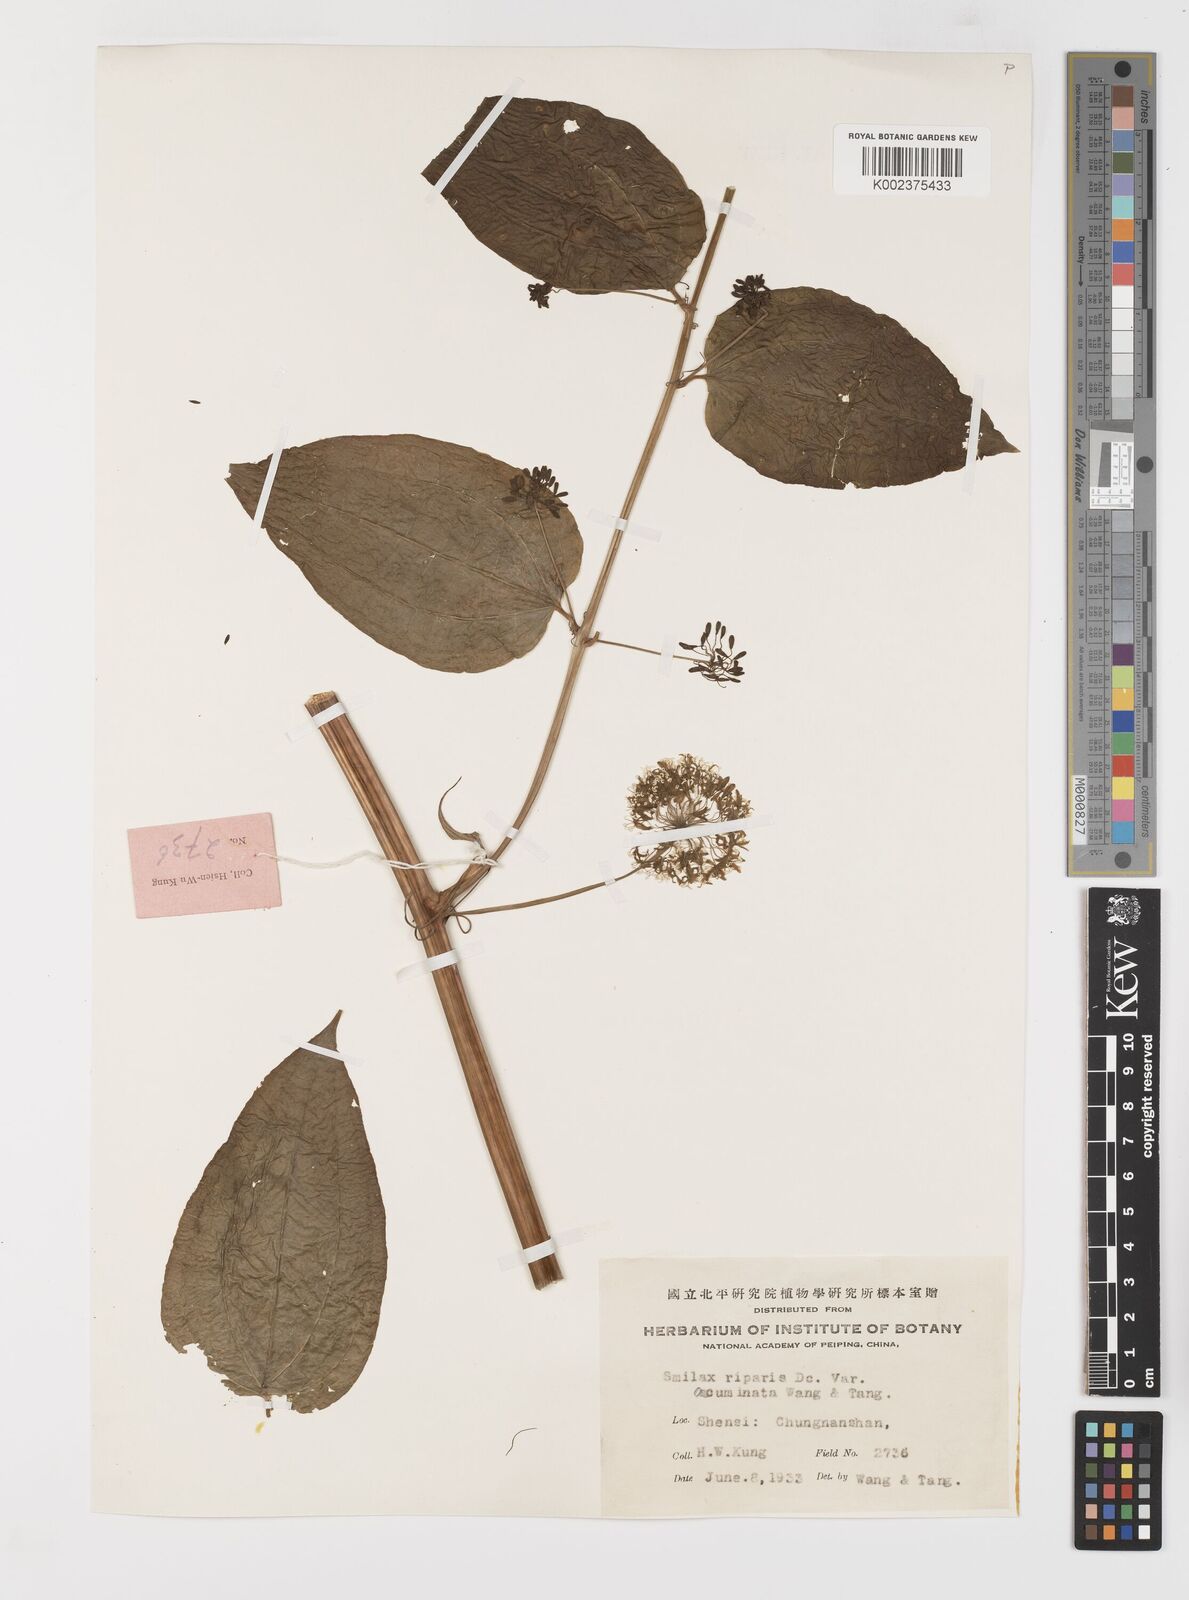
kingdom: Plantae
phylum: Tracheophyta
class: Liliopsida
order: Liliales
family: Smilacaceae
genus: Smilax
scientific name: Smilax riparia
